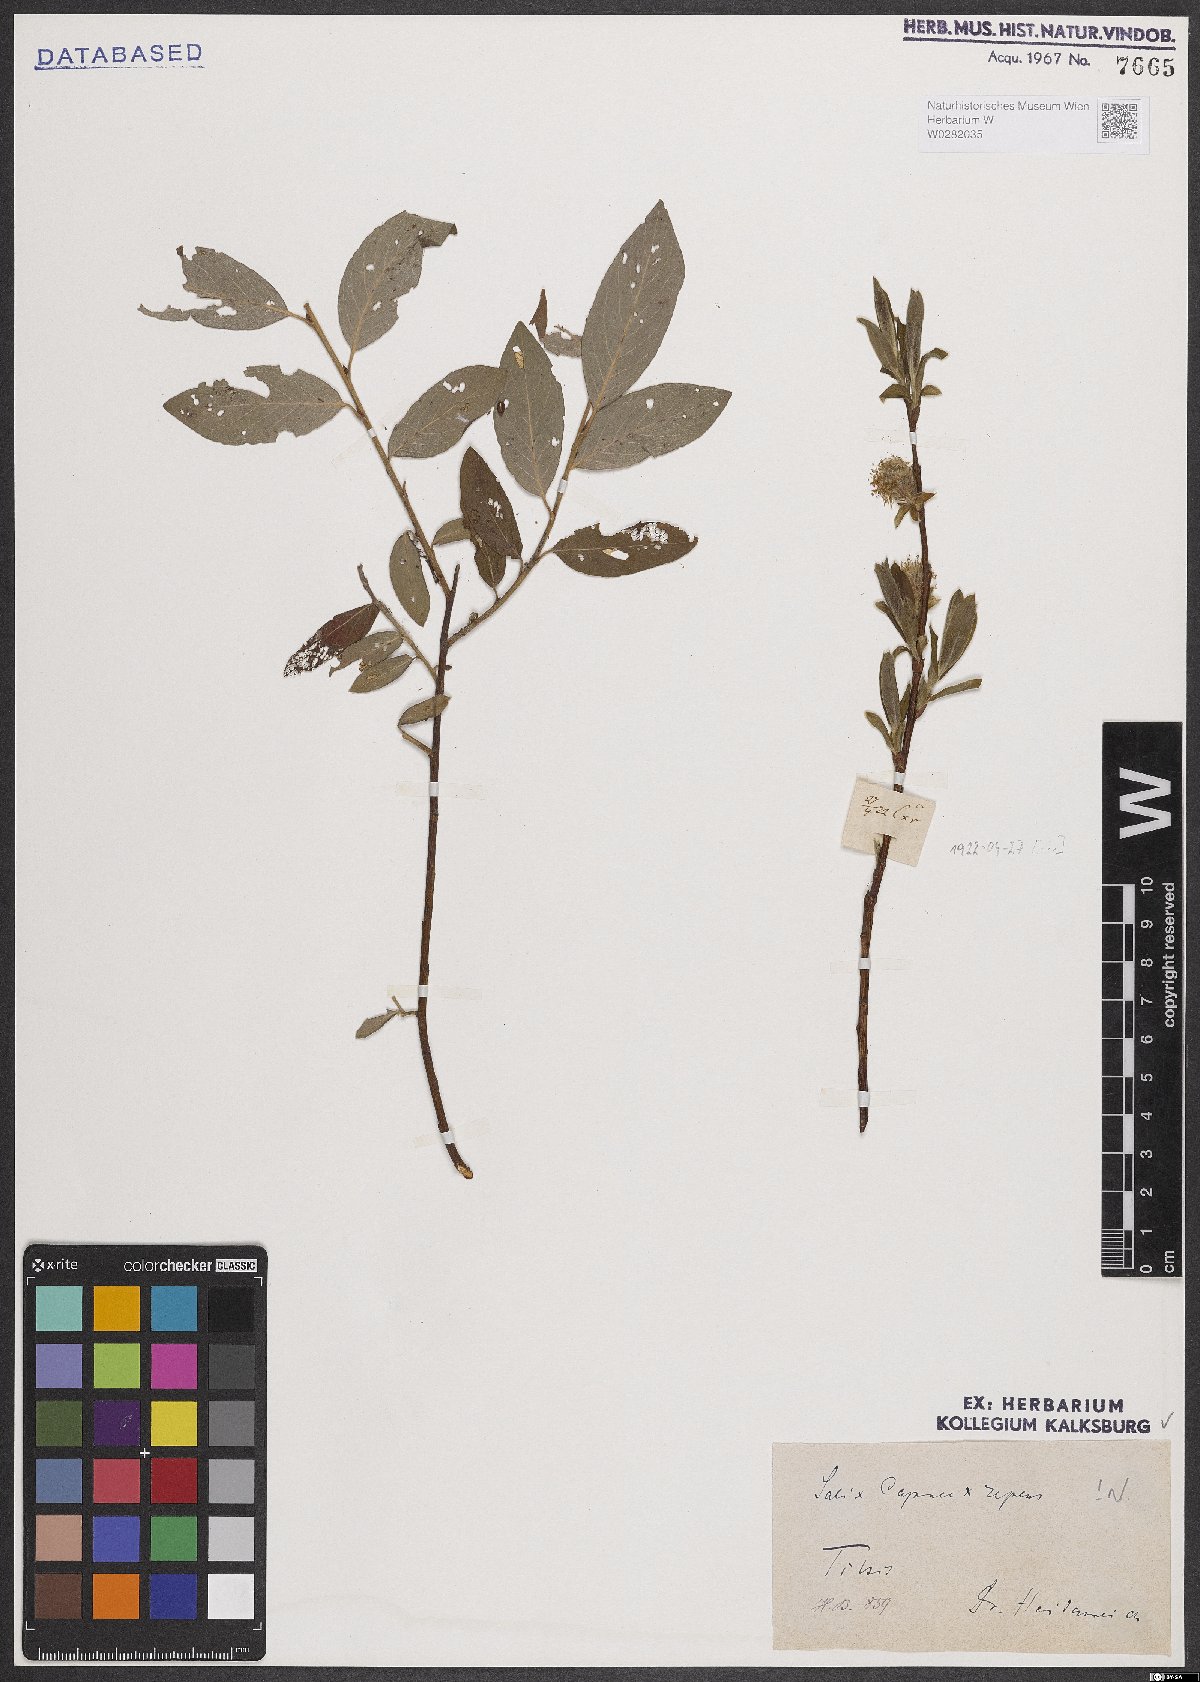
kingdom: Plantae
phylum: Tracheophyta
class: Magnoliopsida
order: Malpighiales
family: Salicaceae
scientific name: Salicaceae
